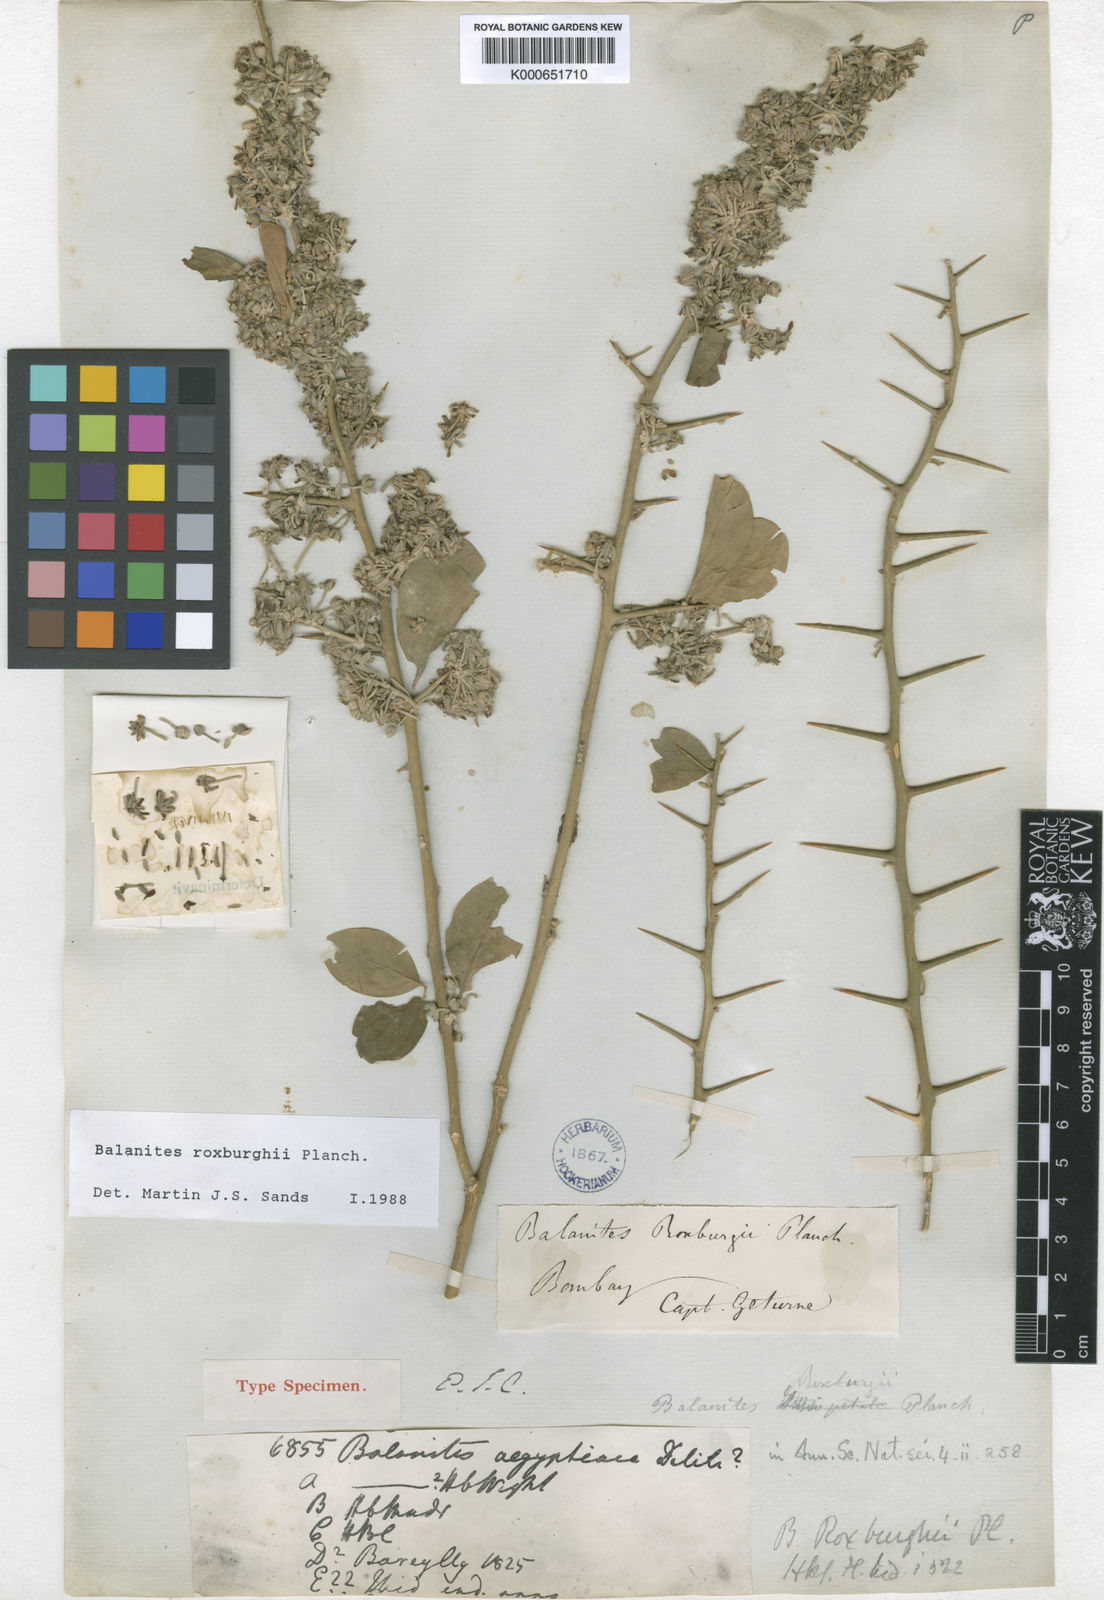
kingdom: Plantae
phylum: Tracheophyta
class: Magnoliopsida
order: Zygophyllales
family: Zygophyllaceae
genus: Balanites
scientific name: Balanites aegyptiaca
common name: Balanites
